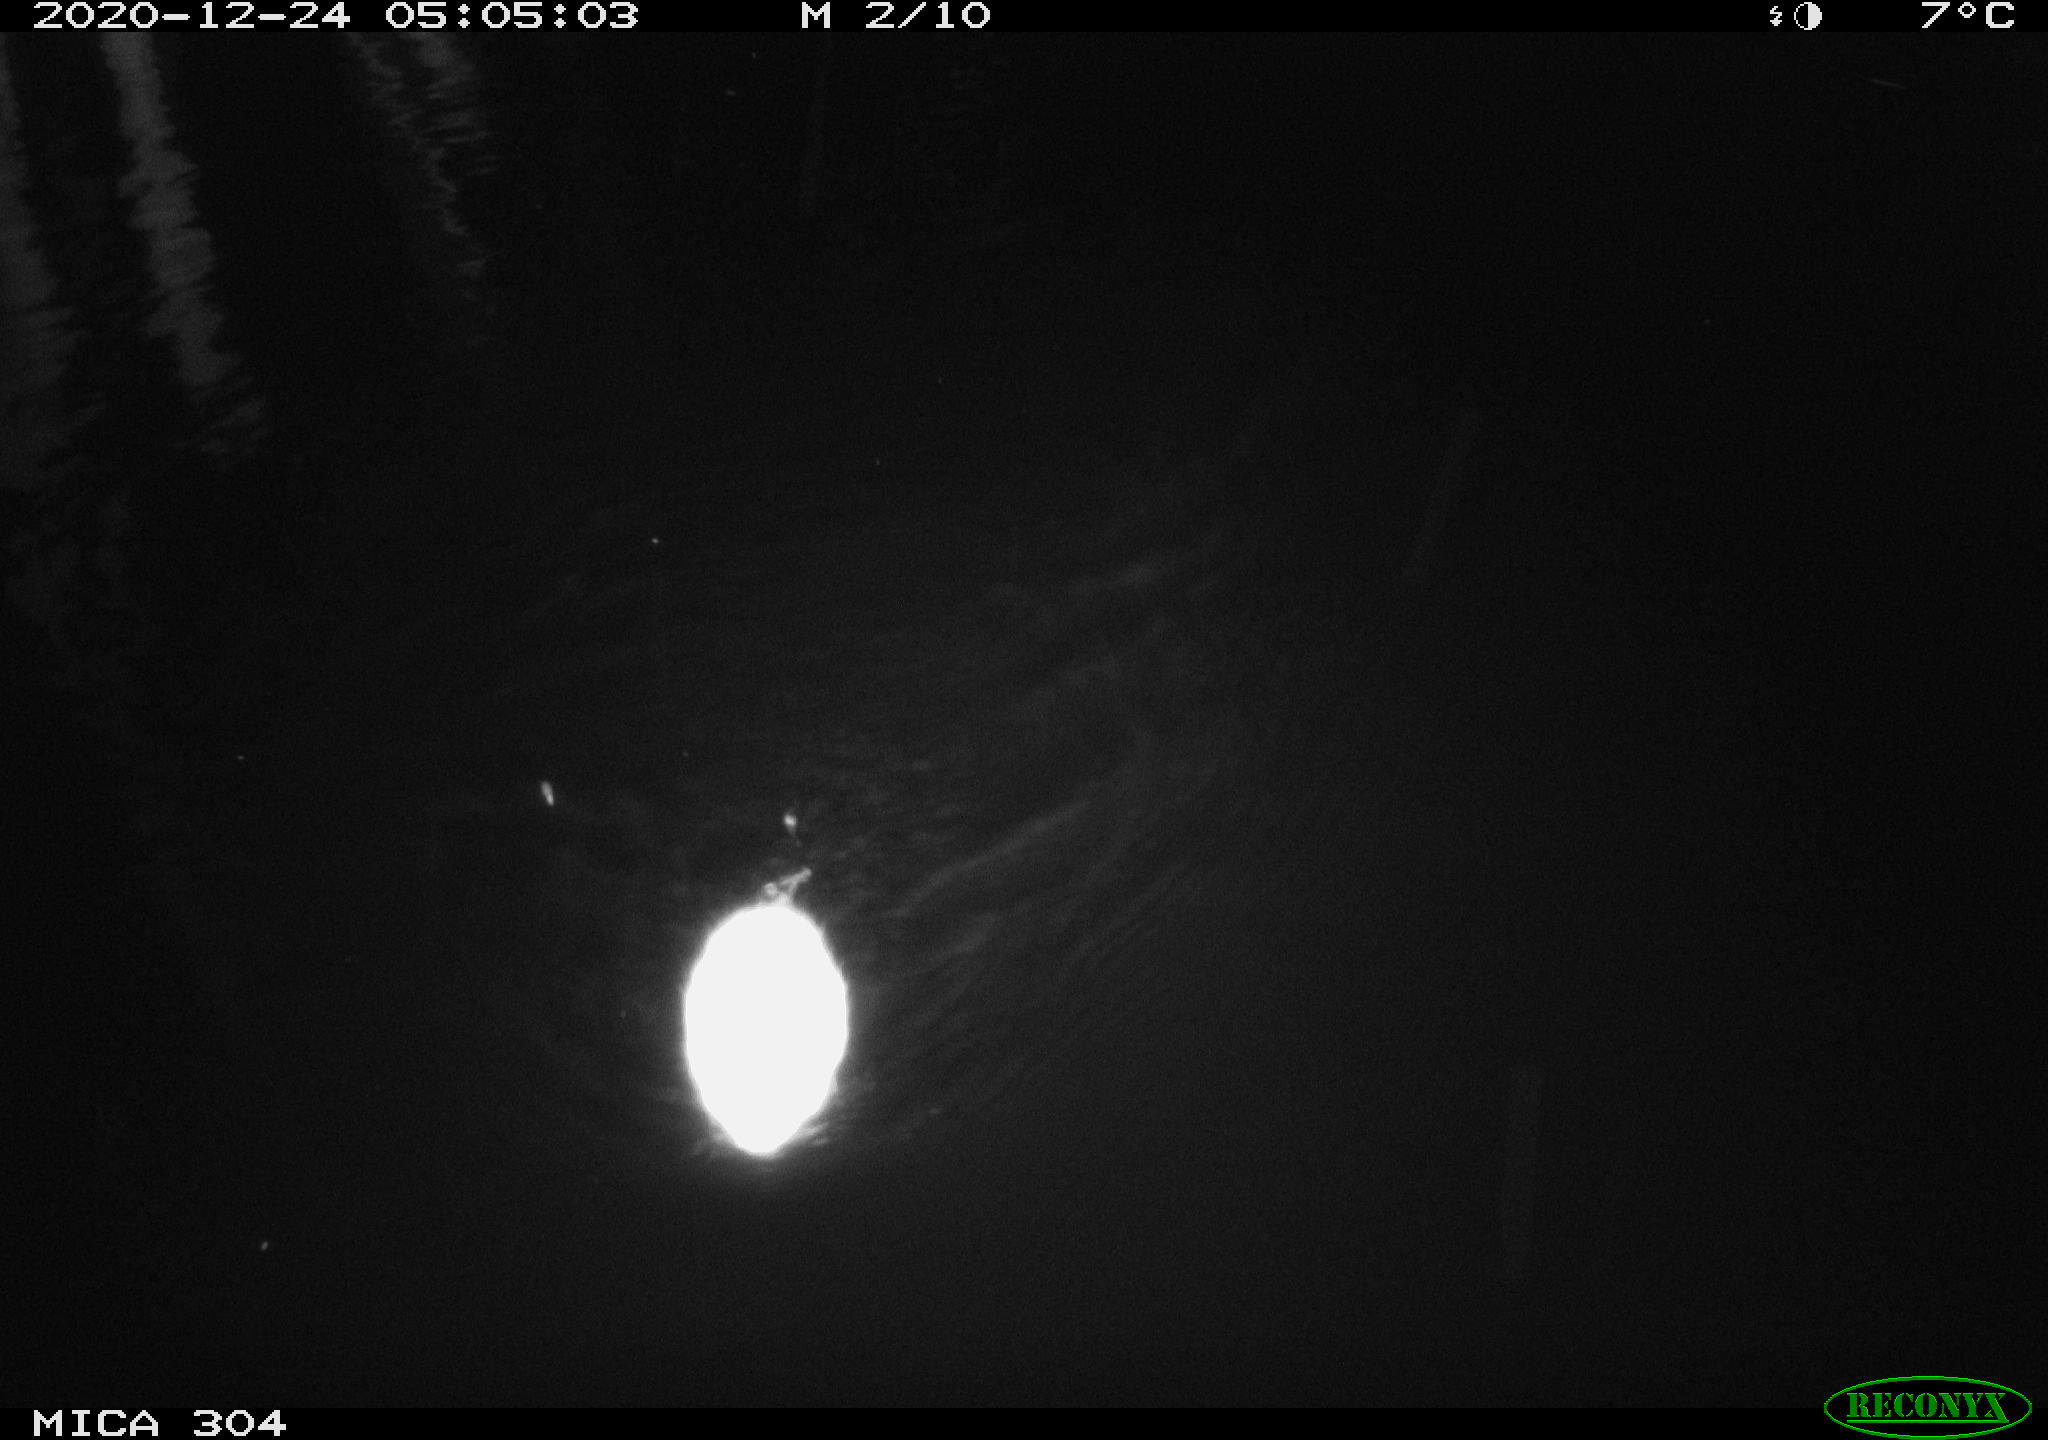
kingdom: Animalia
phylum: Chordata
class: Mammalia
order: Rodentia
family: Cricetidae
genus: Ondatra
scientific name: Ondatra zibethicus
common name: Muskrat
